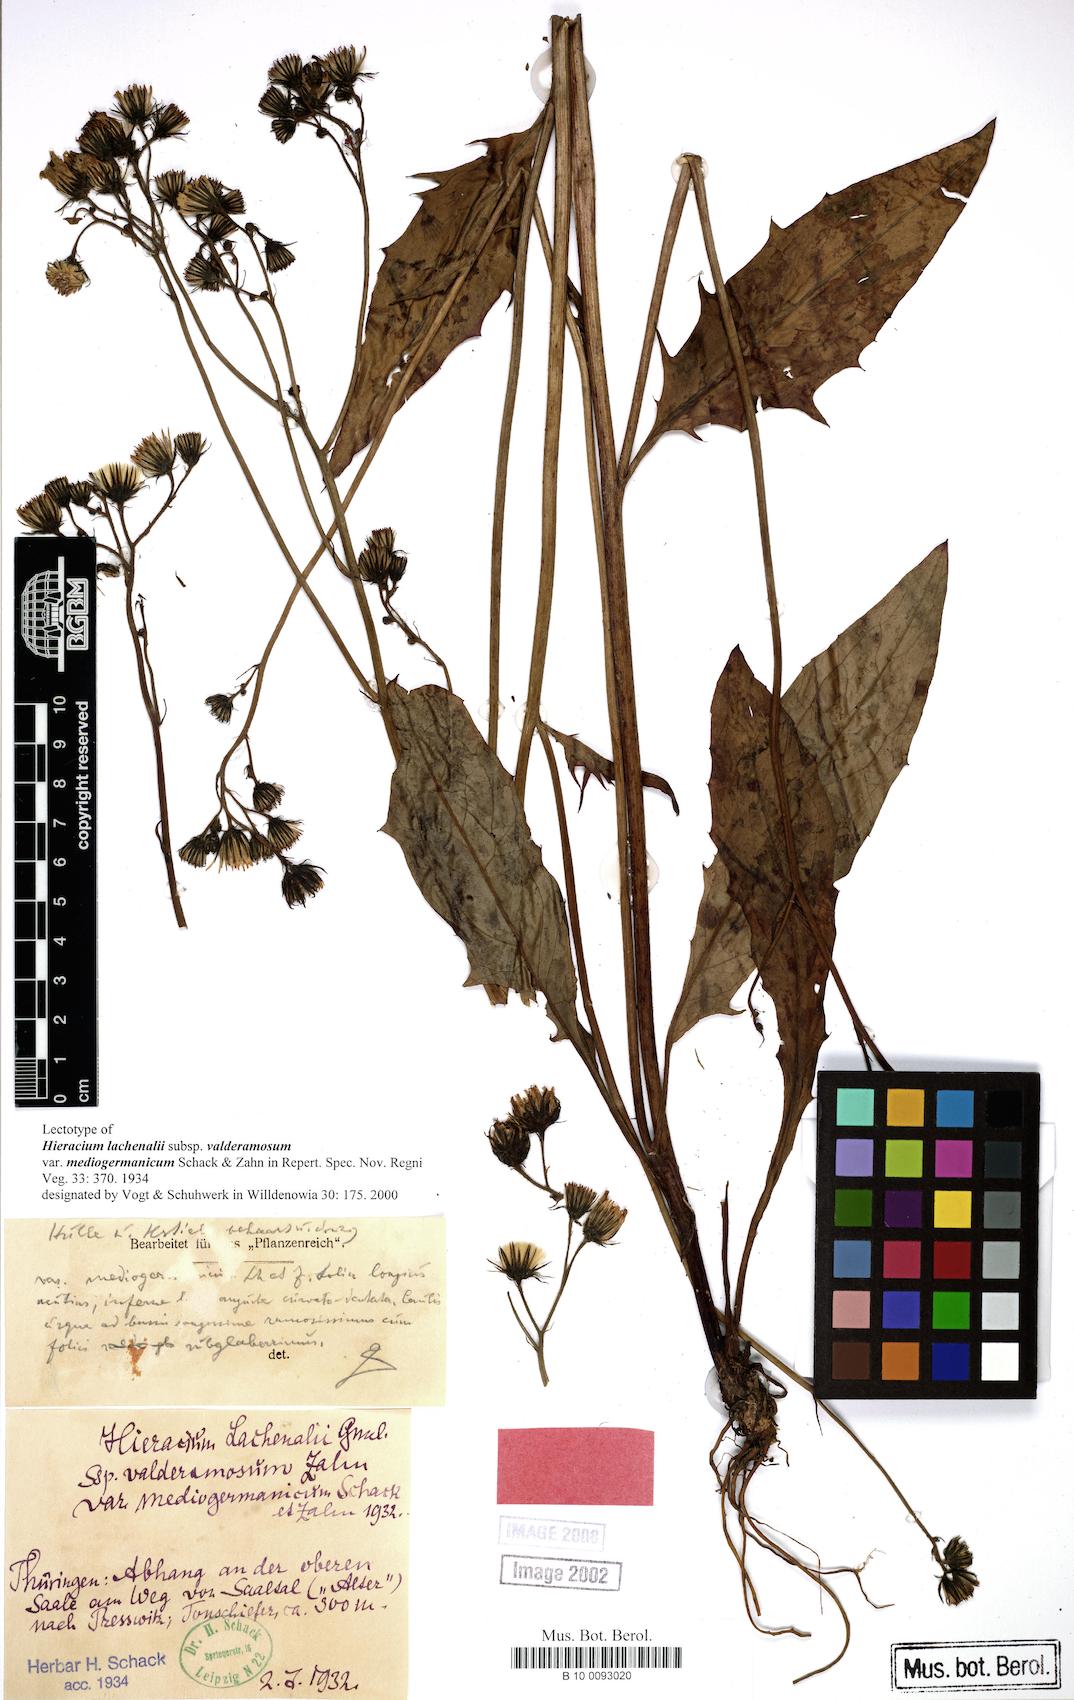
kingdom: Plantae
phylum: Tracheophyta
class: Magnoliopsida
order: Asterales
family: Asteraceae
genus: Hieracium
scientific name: Hieracium lachenalii
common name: Common hawkweed
